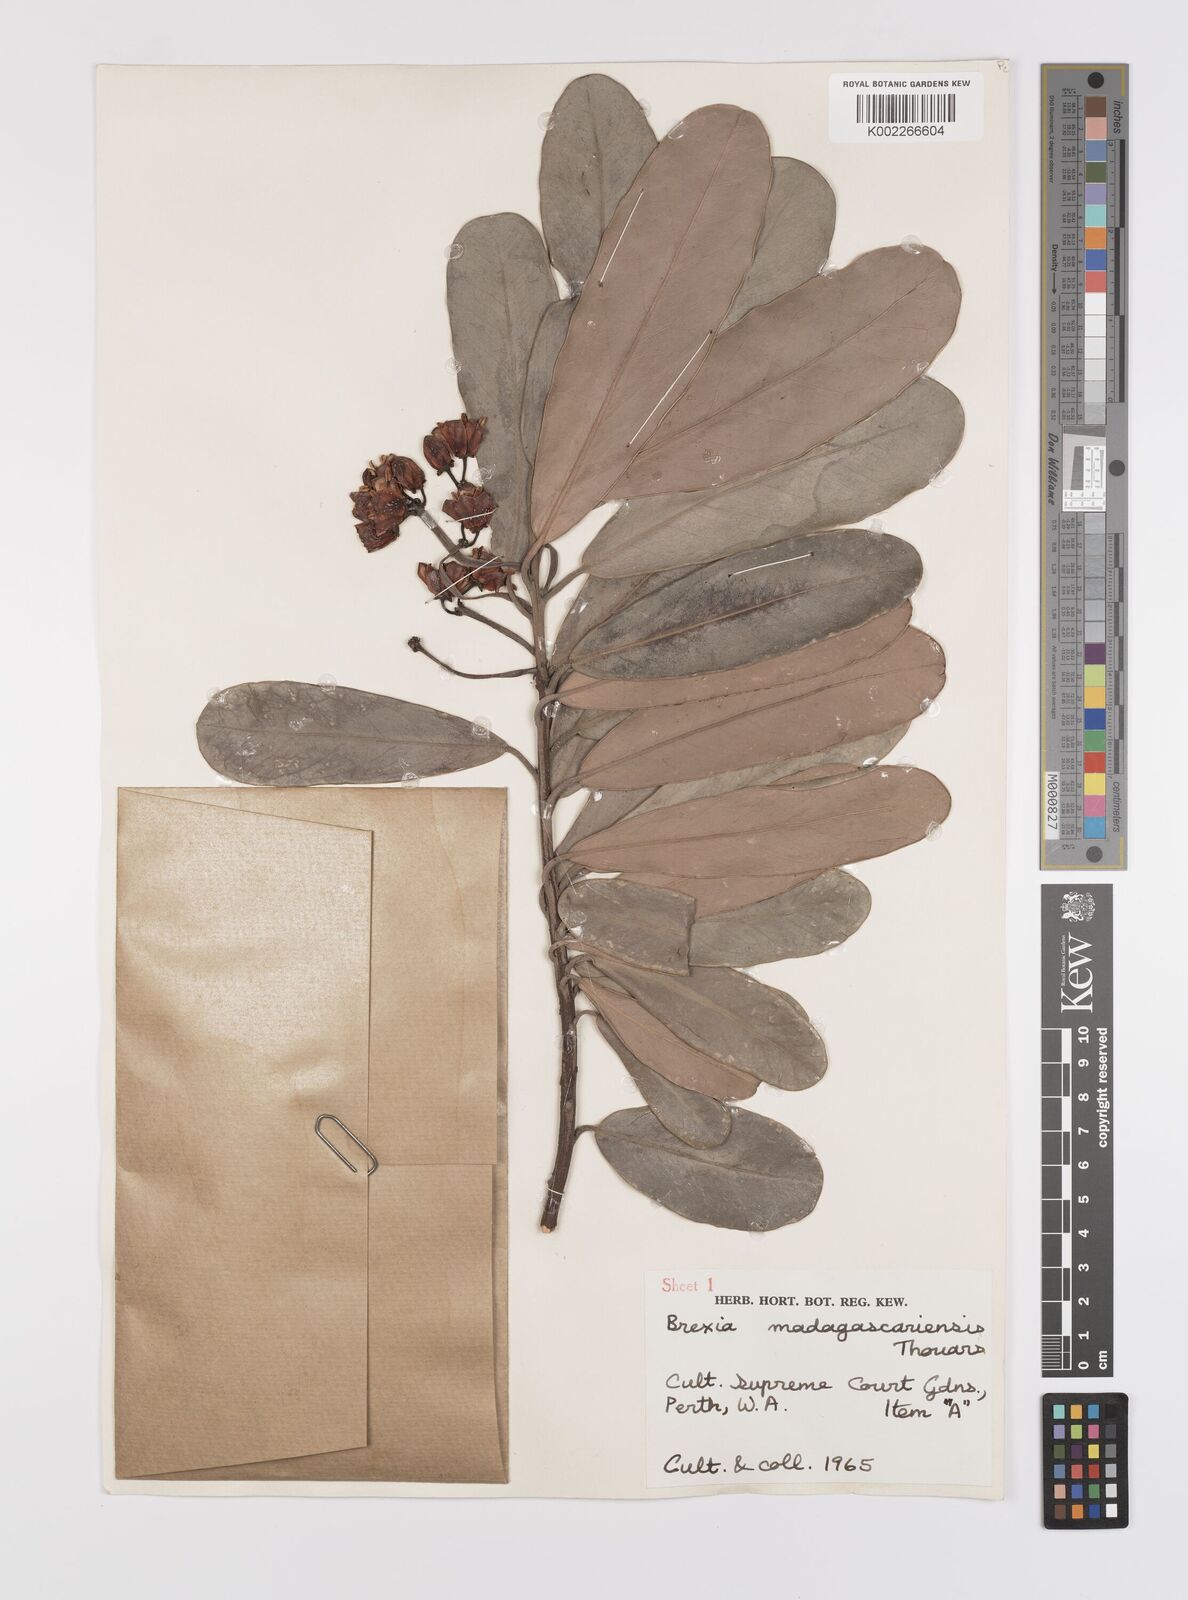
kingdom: Plantae
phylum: Tracheophyta
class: Magnoliopsida
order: Celastrales
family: Celastraceae
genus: Brexia
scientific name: Brexia madagascariensis
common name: Brexia
